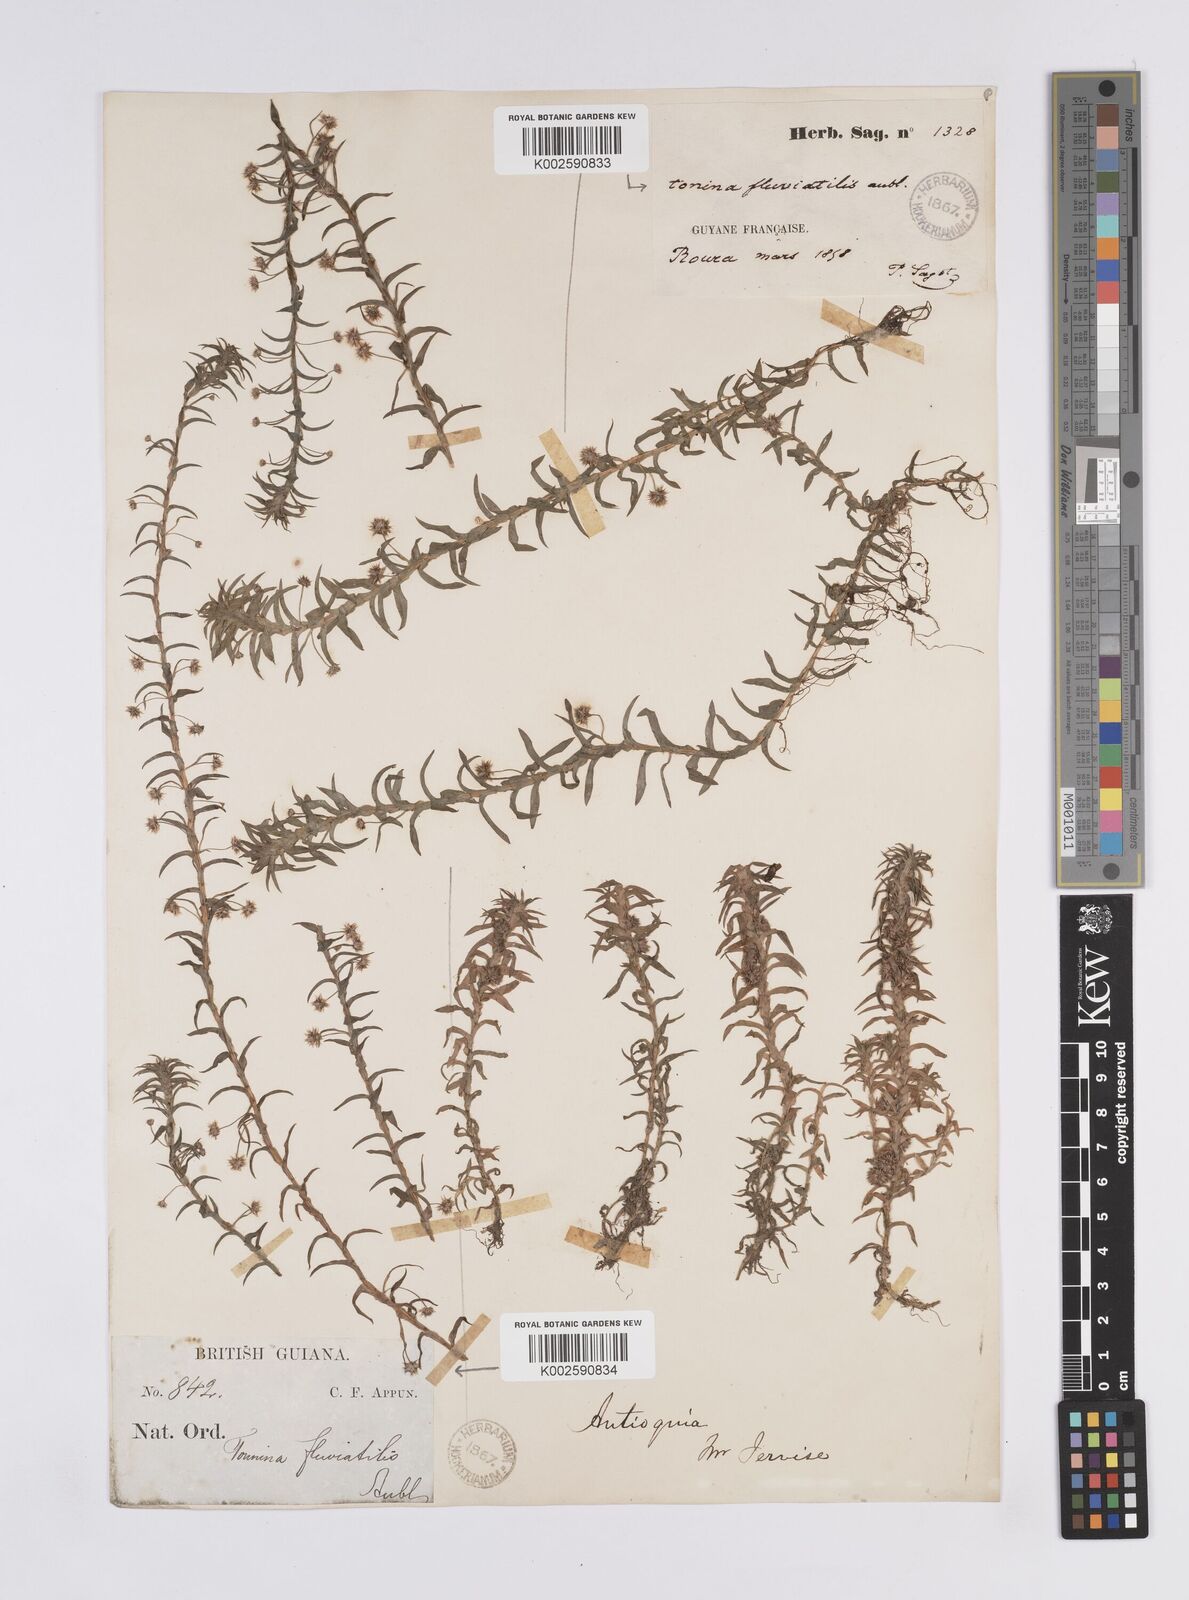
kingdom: Plantae
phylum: Tracheophyta
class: Liliopsida
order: Poales
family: Eriocaulaceae
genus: Paepalanthus
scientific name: Paepalanthus fluviatilis
